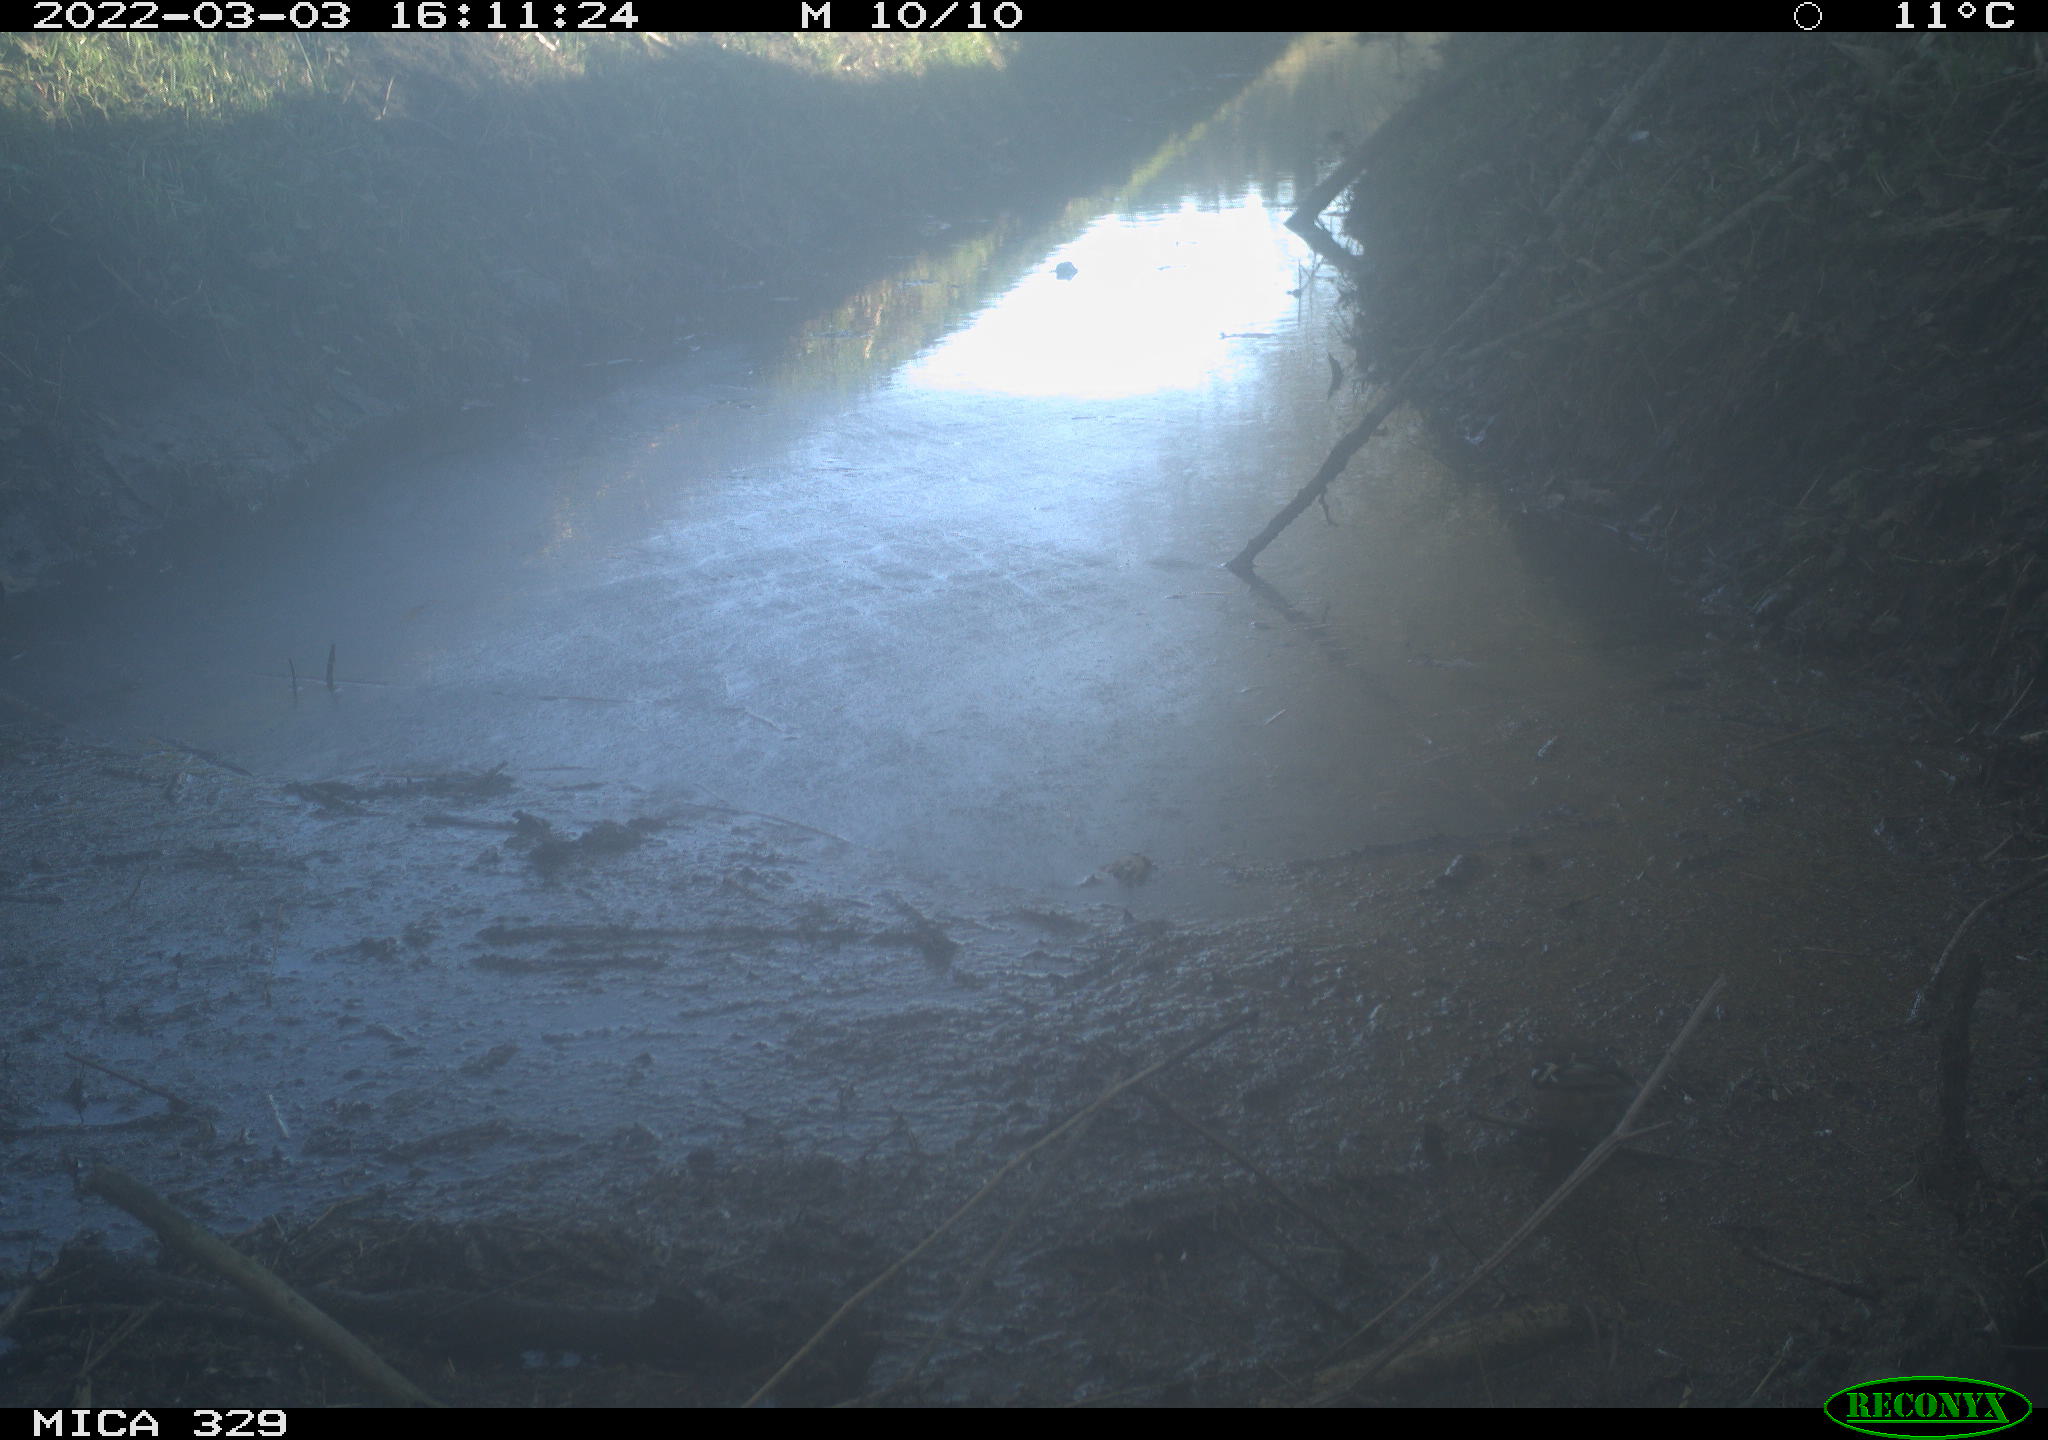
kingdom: Animalia
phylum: Chordata
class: Aves
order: Passeriformes
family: Fringillidae
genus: Fringilla
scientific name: Fringilla coelebs
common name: Common chaffinch
